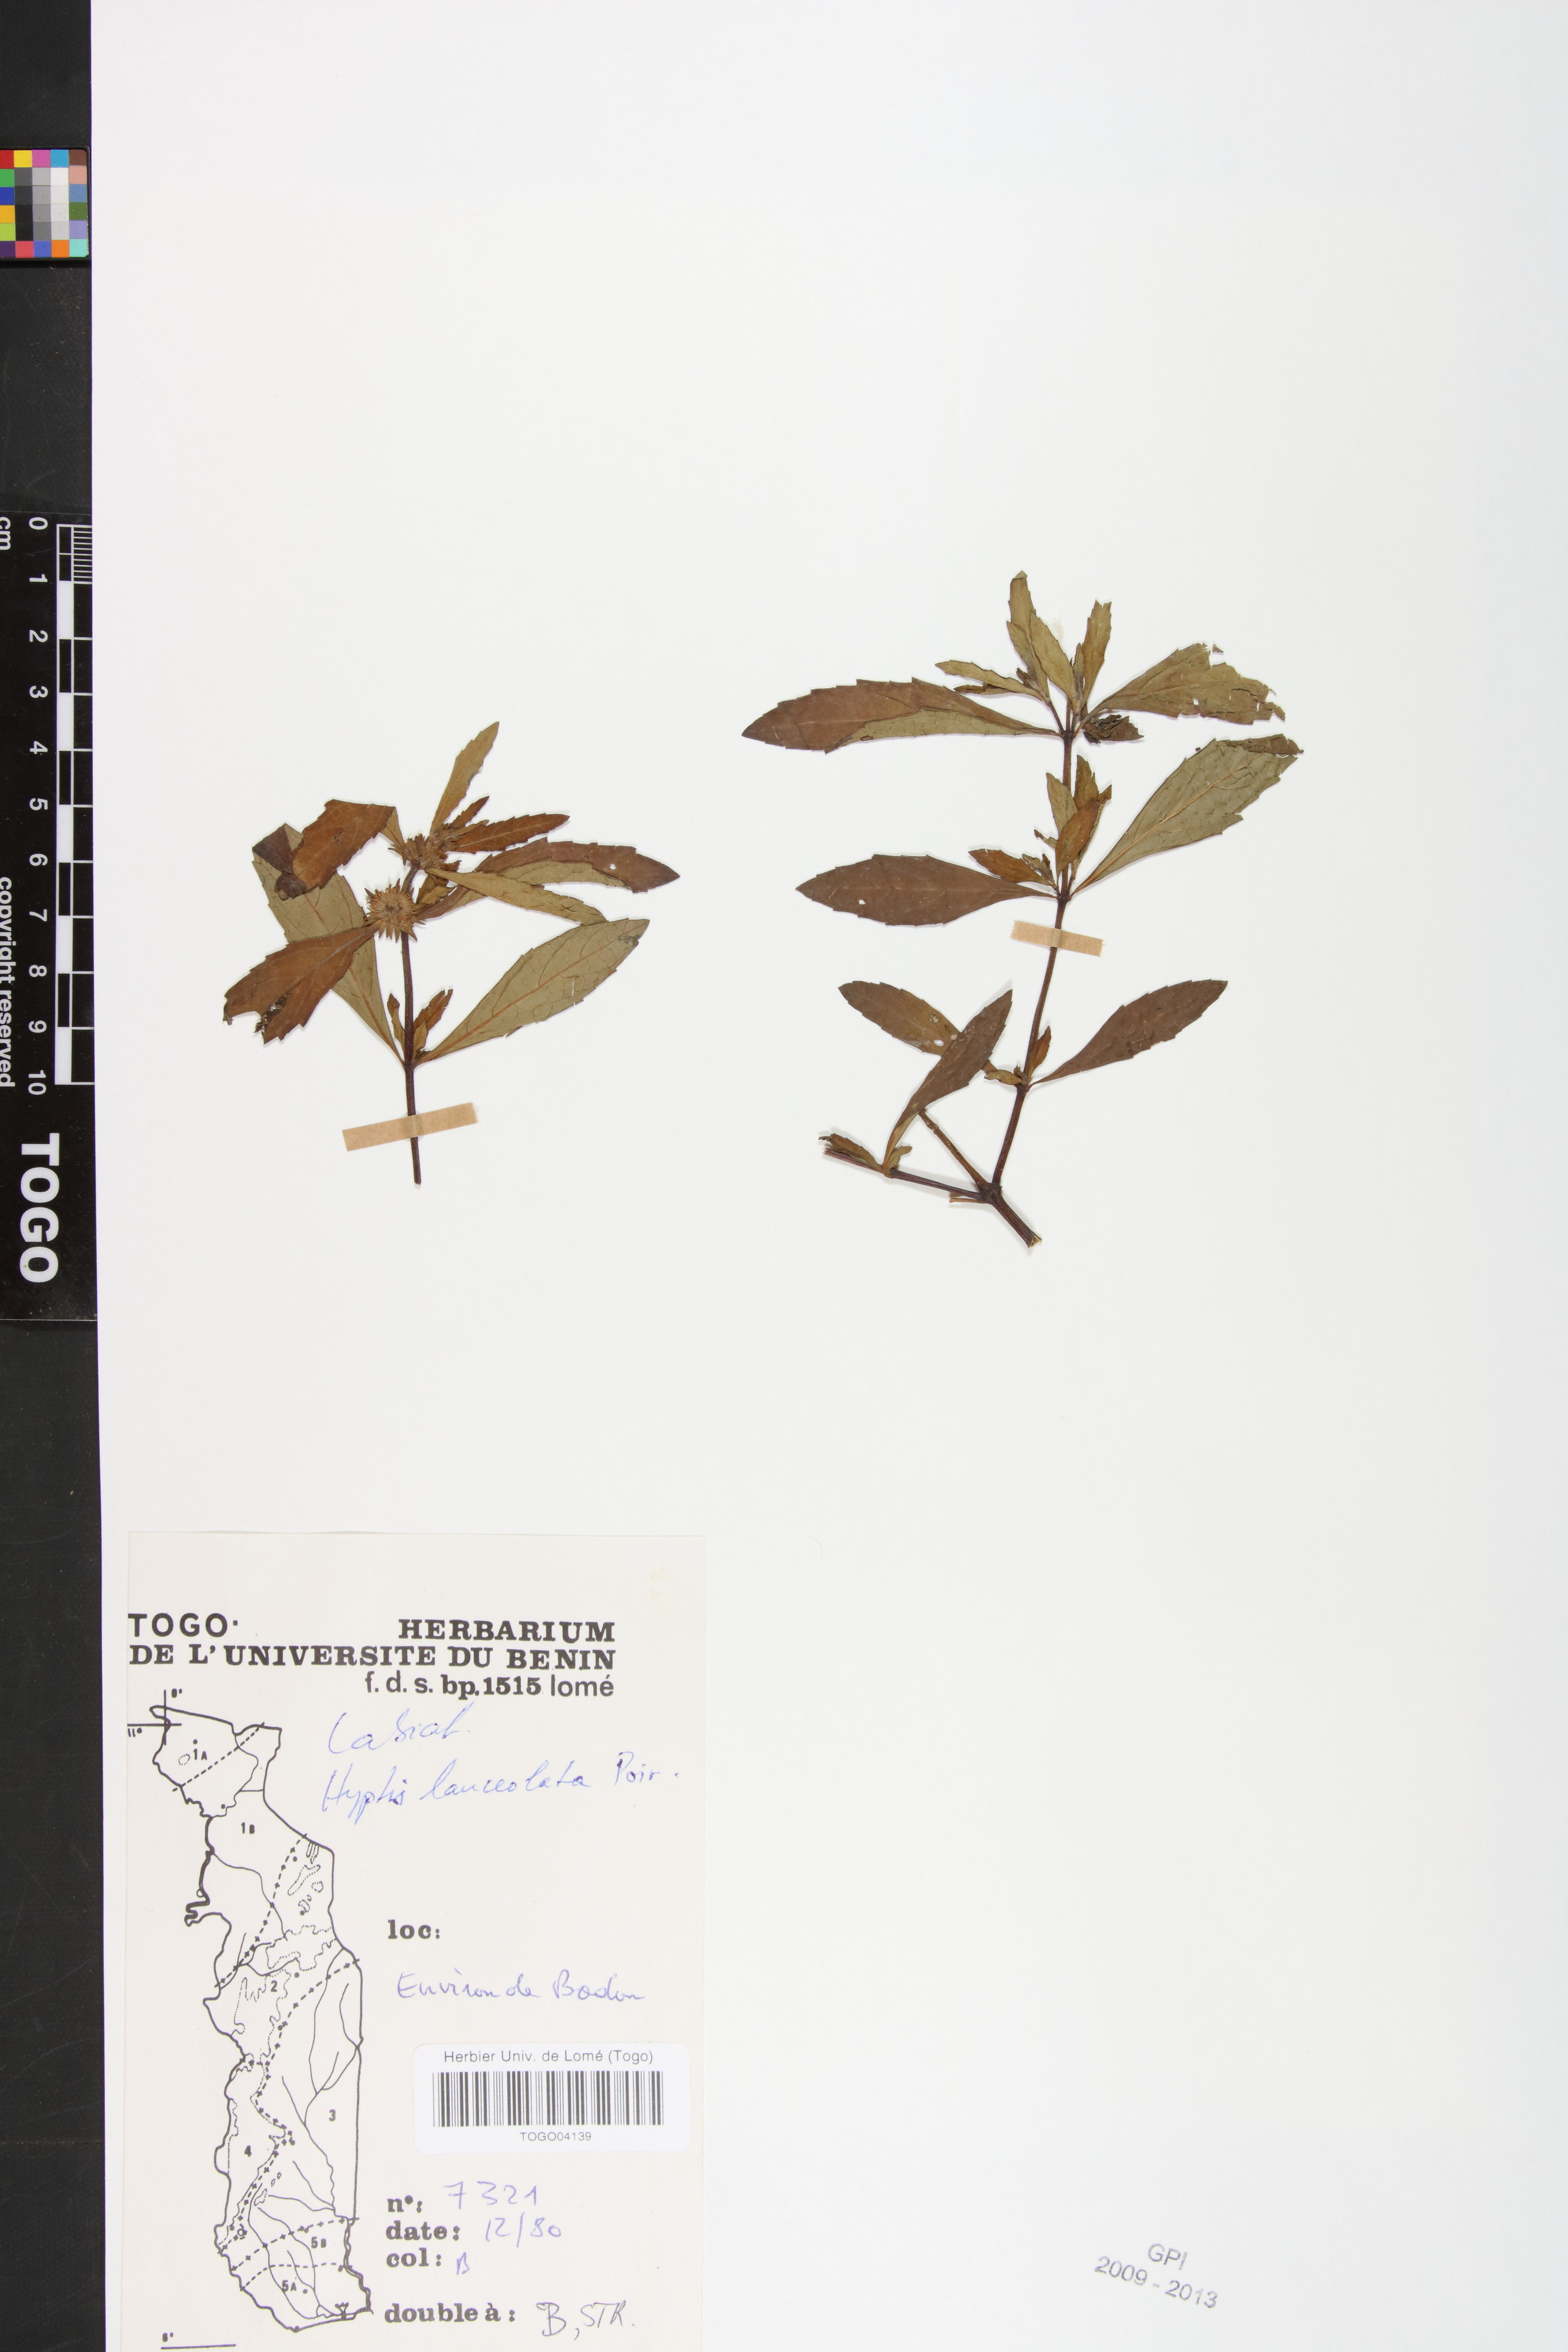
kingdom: Plantae
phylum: Tracheophyta
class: Magnoliopsida
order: Lamiales
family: Lamiaceae
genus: Hyptis
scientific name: Hyptis lanceolata
